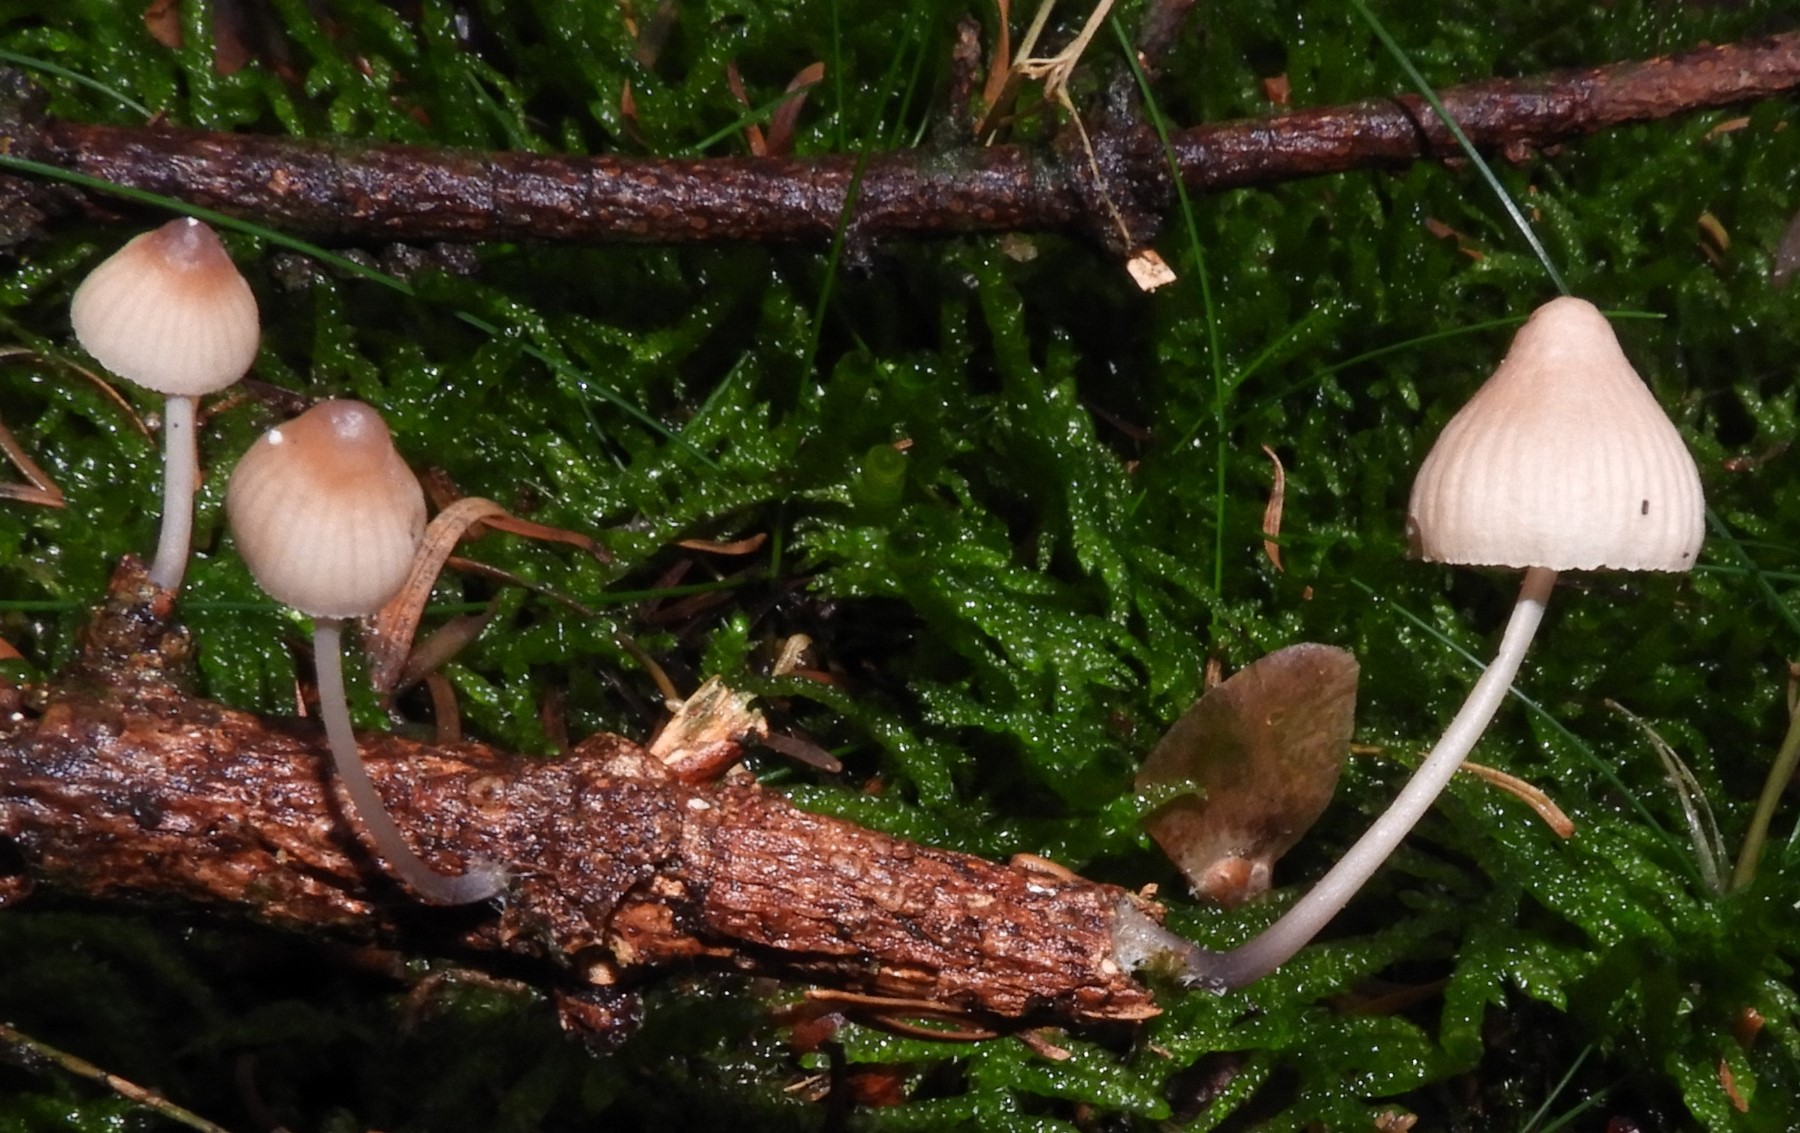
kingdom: Fungi
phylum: Basidiomycota
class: Agaricomycetes
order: Agaricales
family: Mycenaceae
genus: Mycena
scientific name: Mycena metata
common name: rødlig huesvamp
